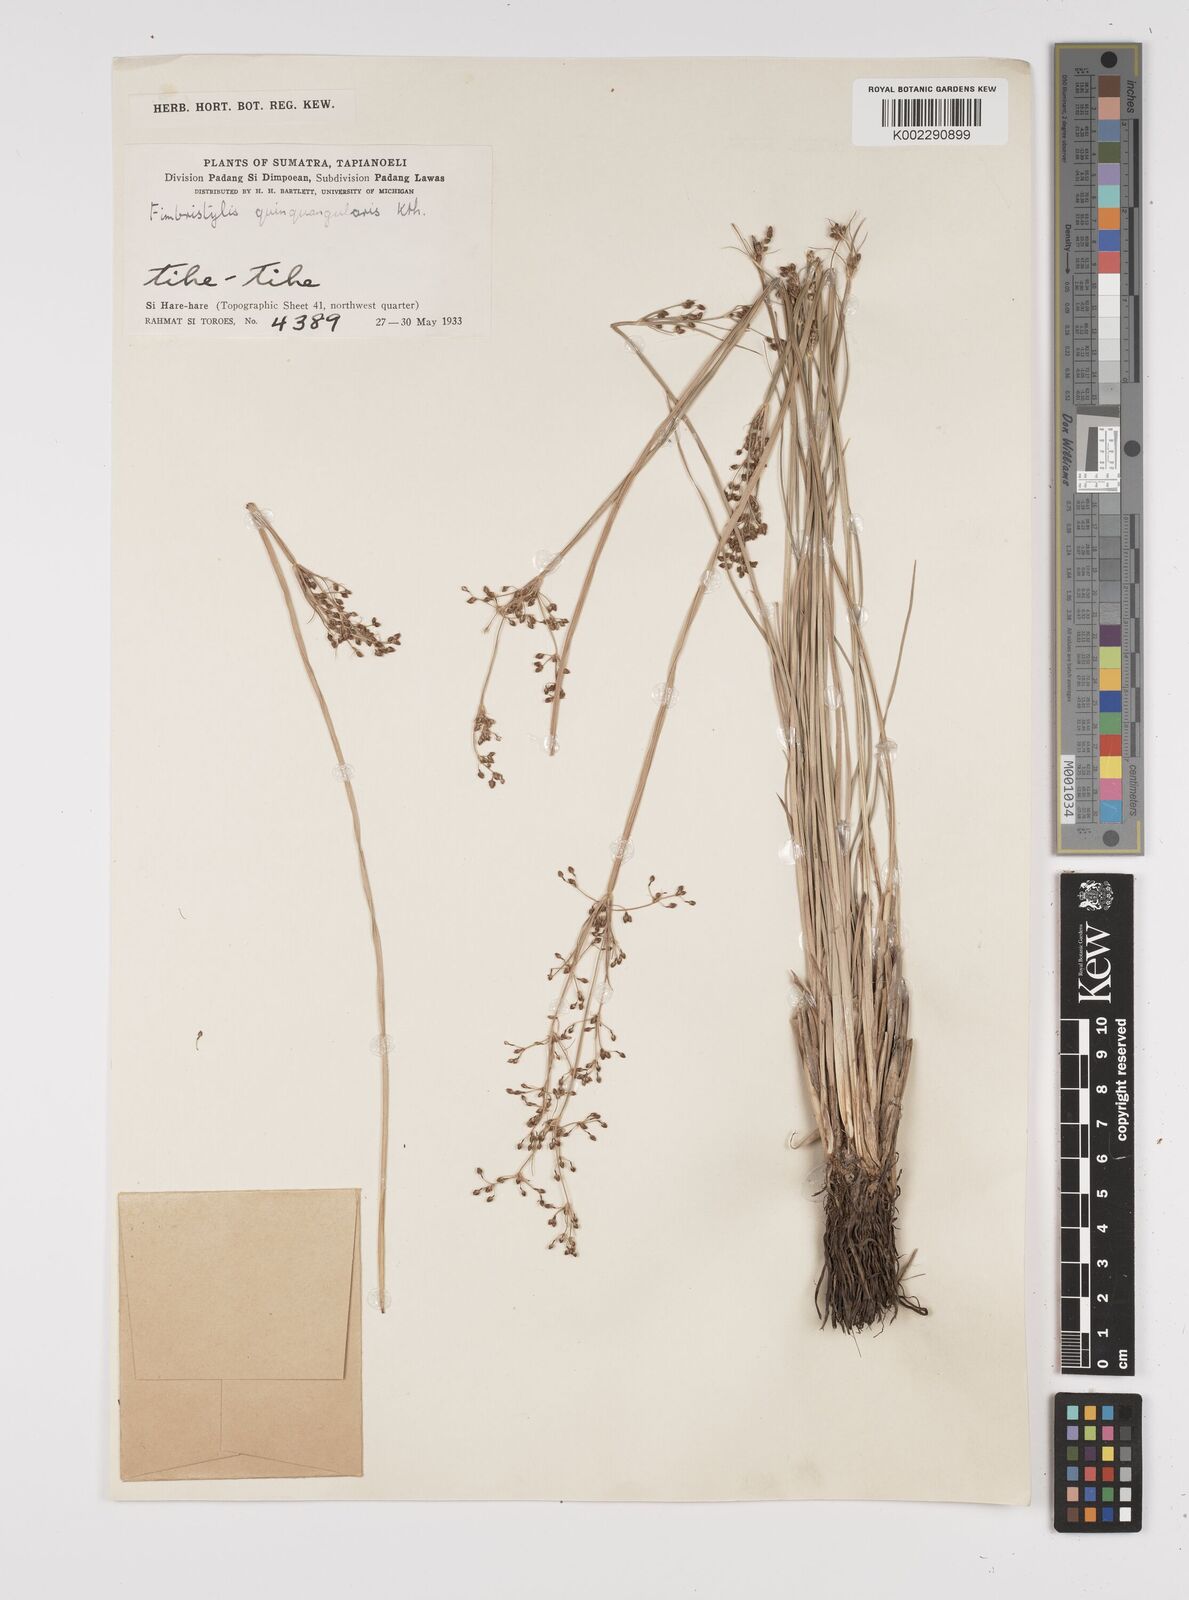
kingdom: Plantae
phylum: Tracheophyta
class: Liliopsida
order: Poales
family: Cyperaceae
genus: Fimbristylis
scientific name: Fimbristylis quinquangularis
